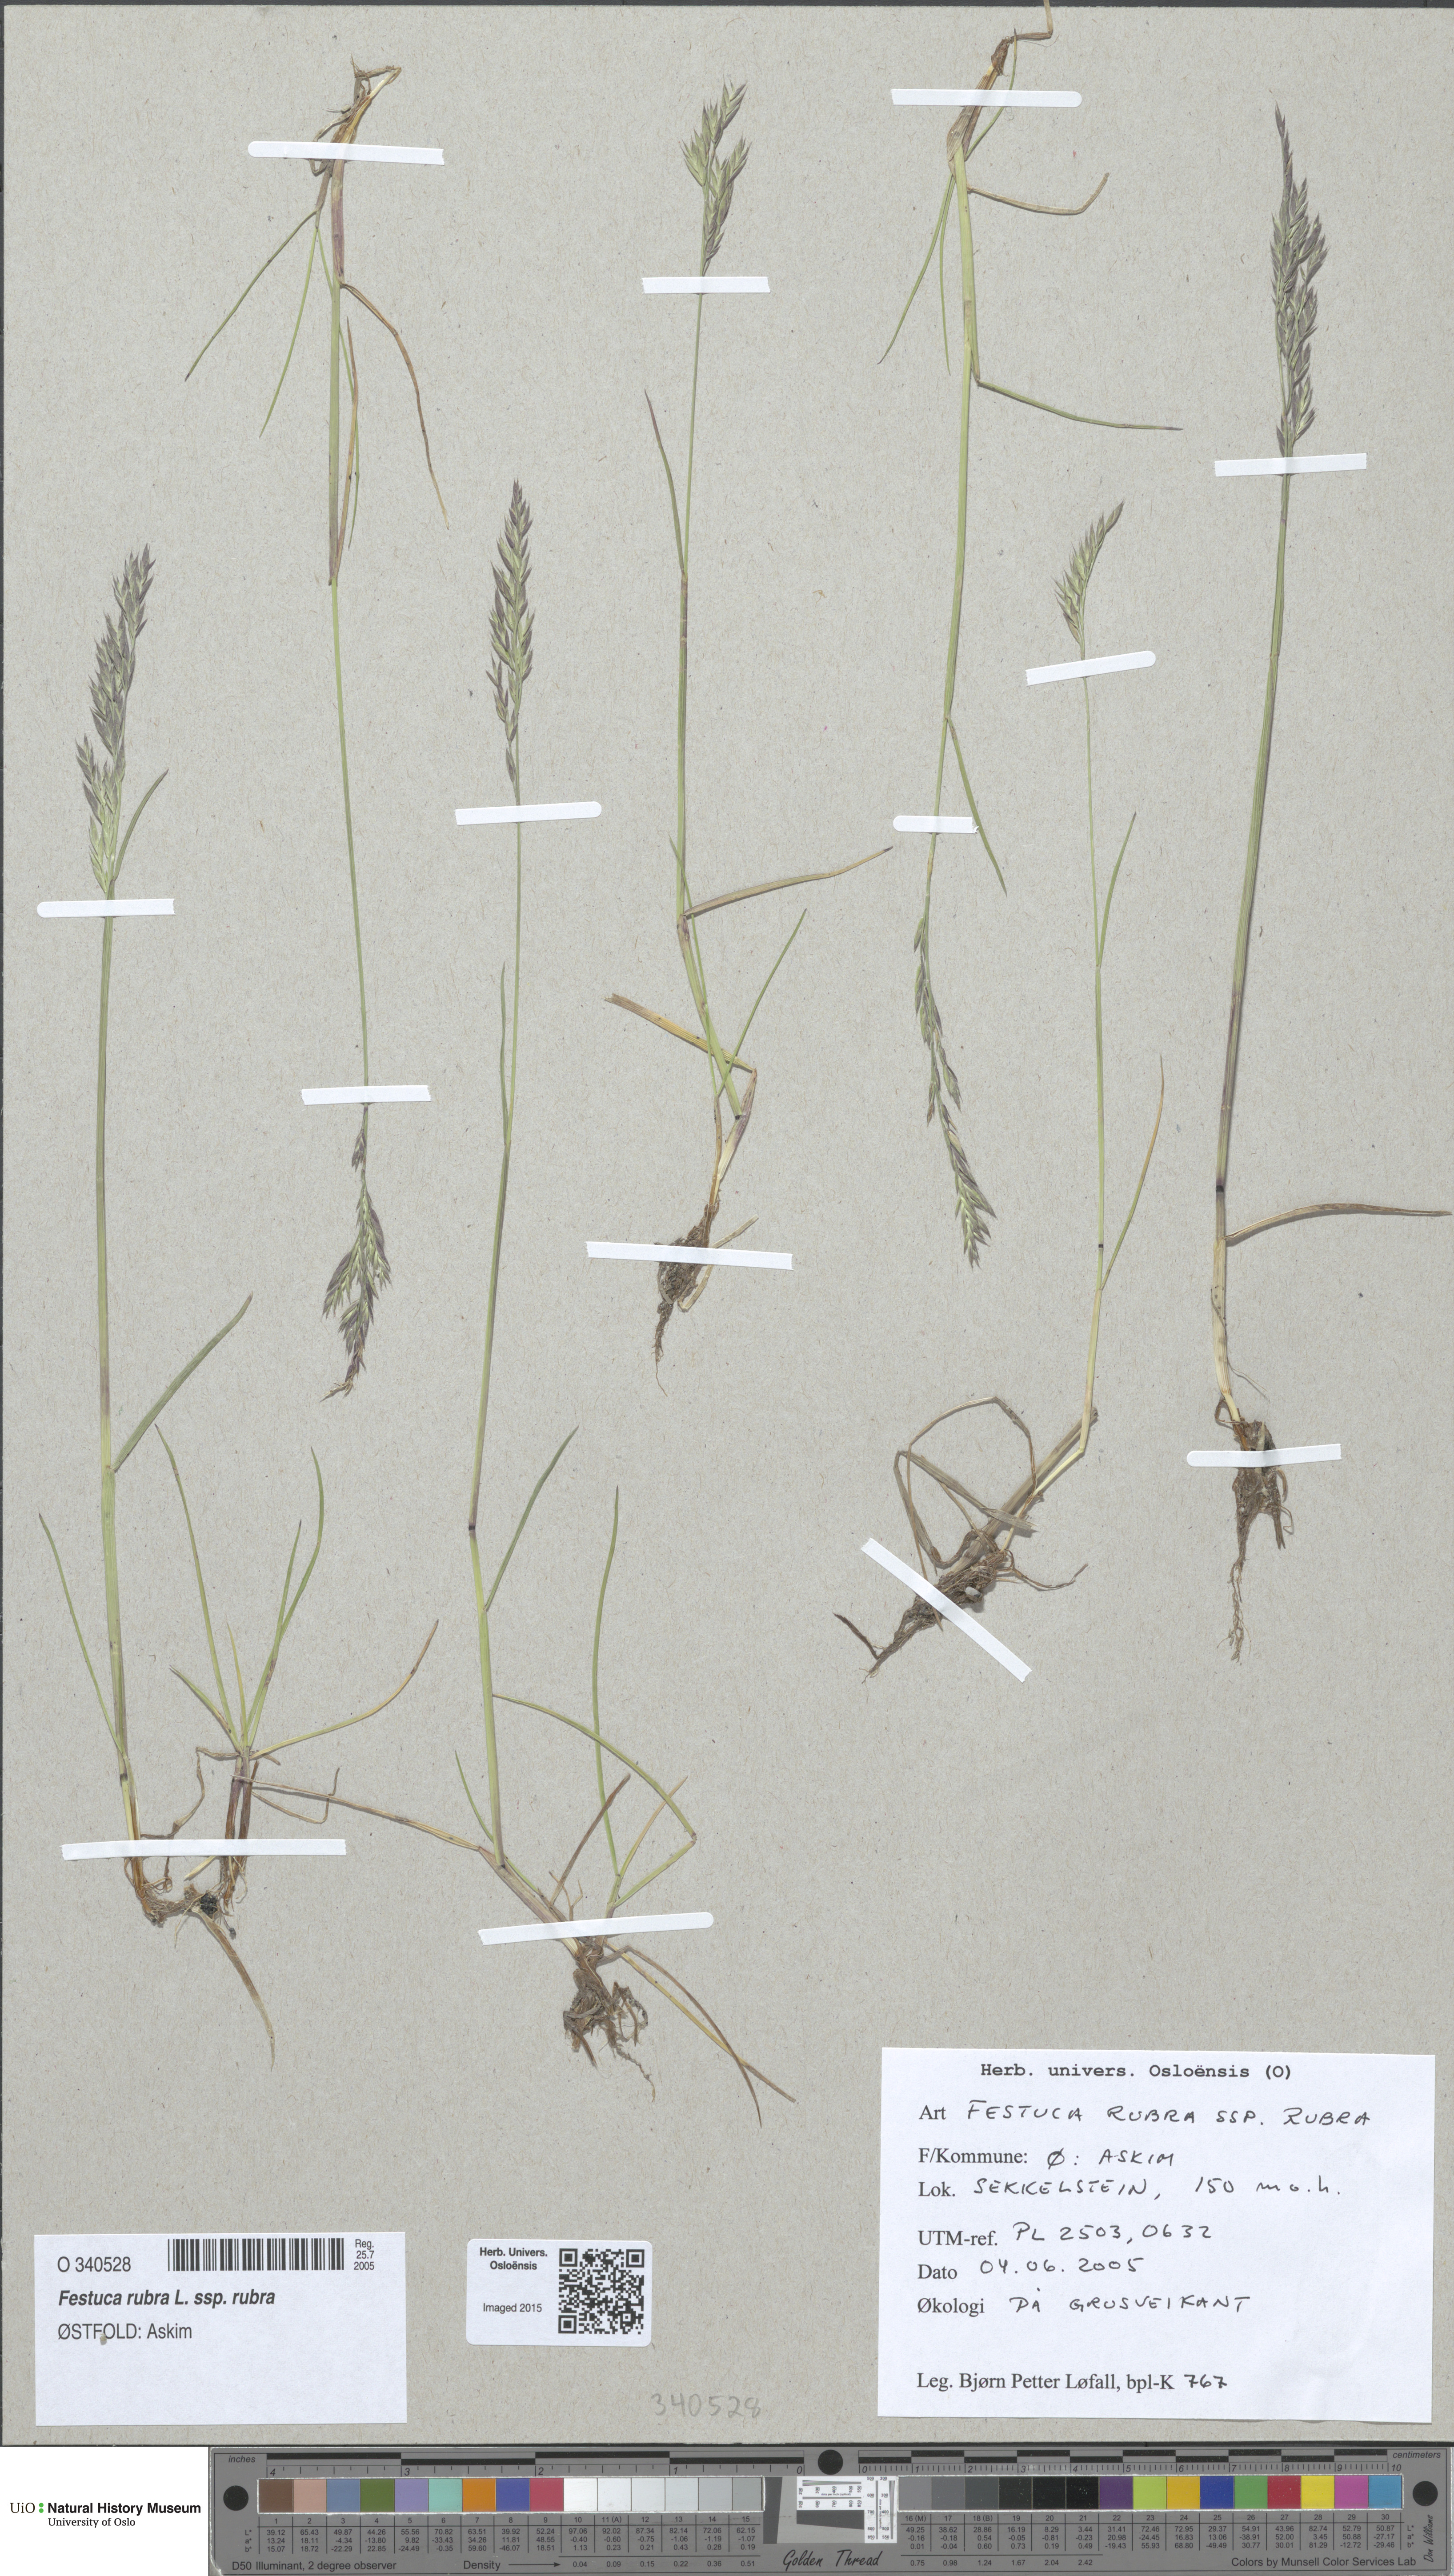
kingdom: Plantae
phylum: Tracheophyta
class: Liliopsida
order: Poales
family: Poaceae
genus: Festuca
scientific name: Festuca rubra
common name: Red fescue
